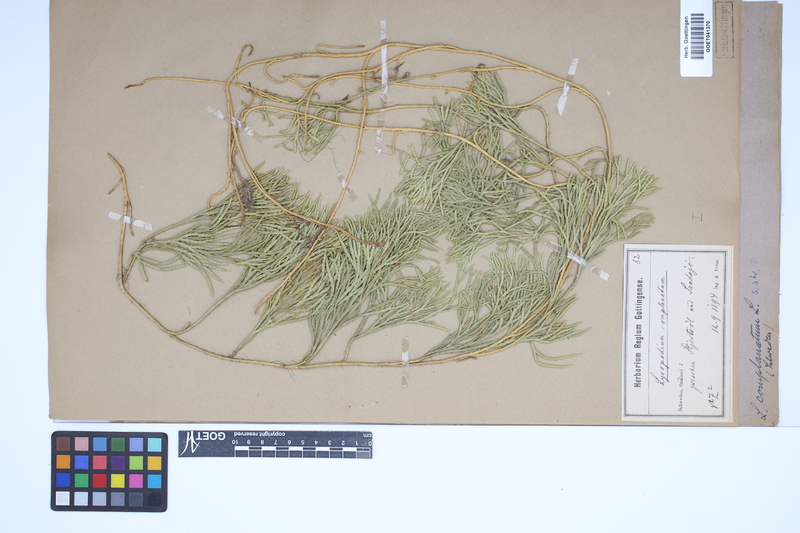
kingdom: Plantae
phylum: Tracheophyta
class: Lycopodiopsida
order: Lycopodiales
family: Lycopodiaceae
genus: Diphasiastrum
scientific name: Diphasiastrum complanatum
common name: Northern running-pine
